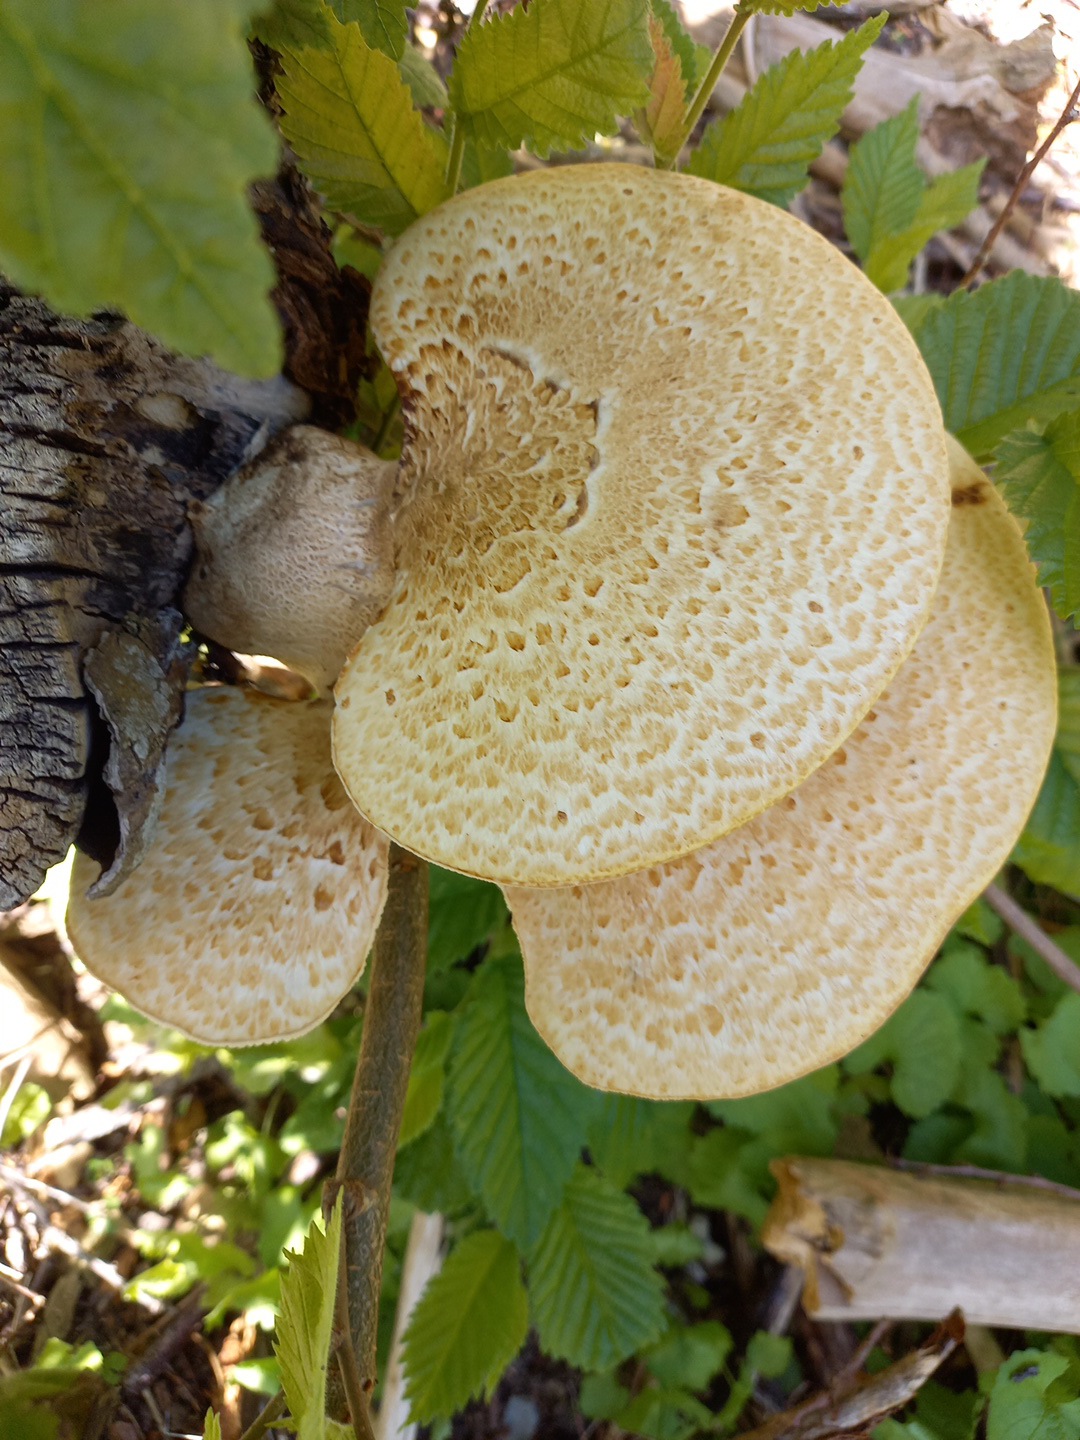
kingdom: Fungi
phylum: Basidiomycota
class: Agaricomycetes
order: Polyporales
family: Polyporaceae
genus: Cerioporus
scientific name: Cerioporus squamosus
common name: skællet stilkporesvamp
